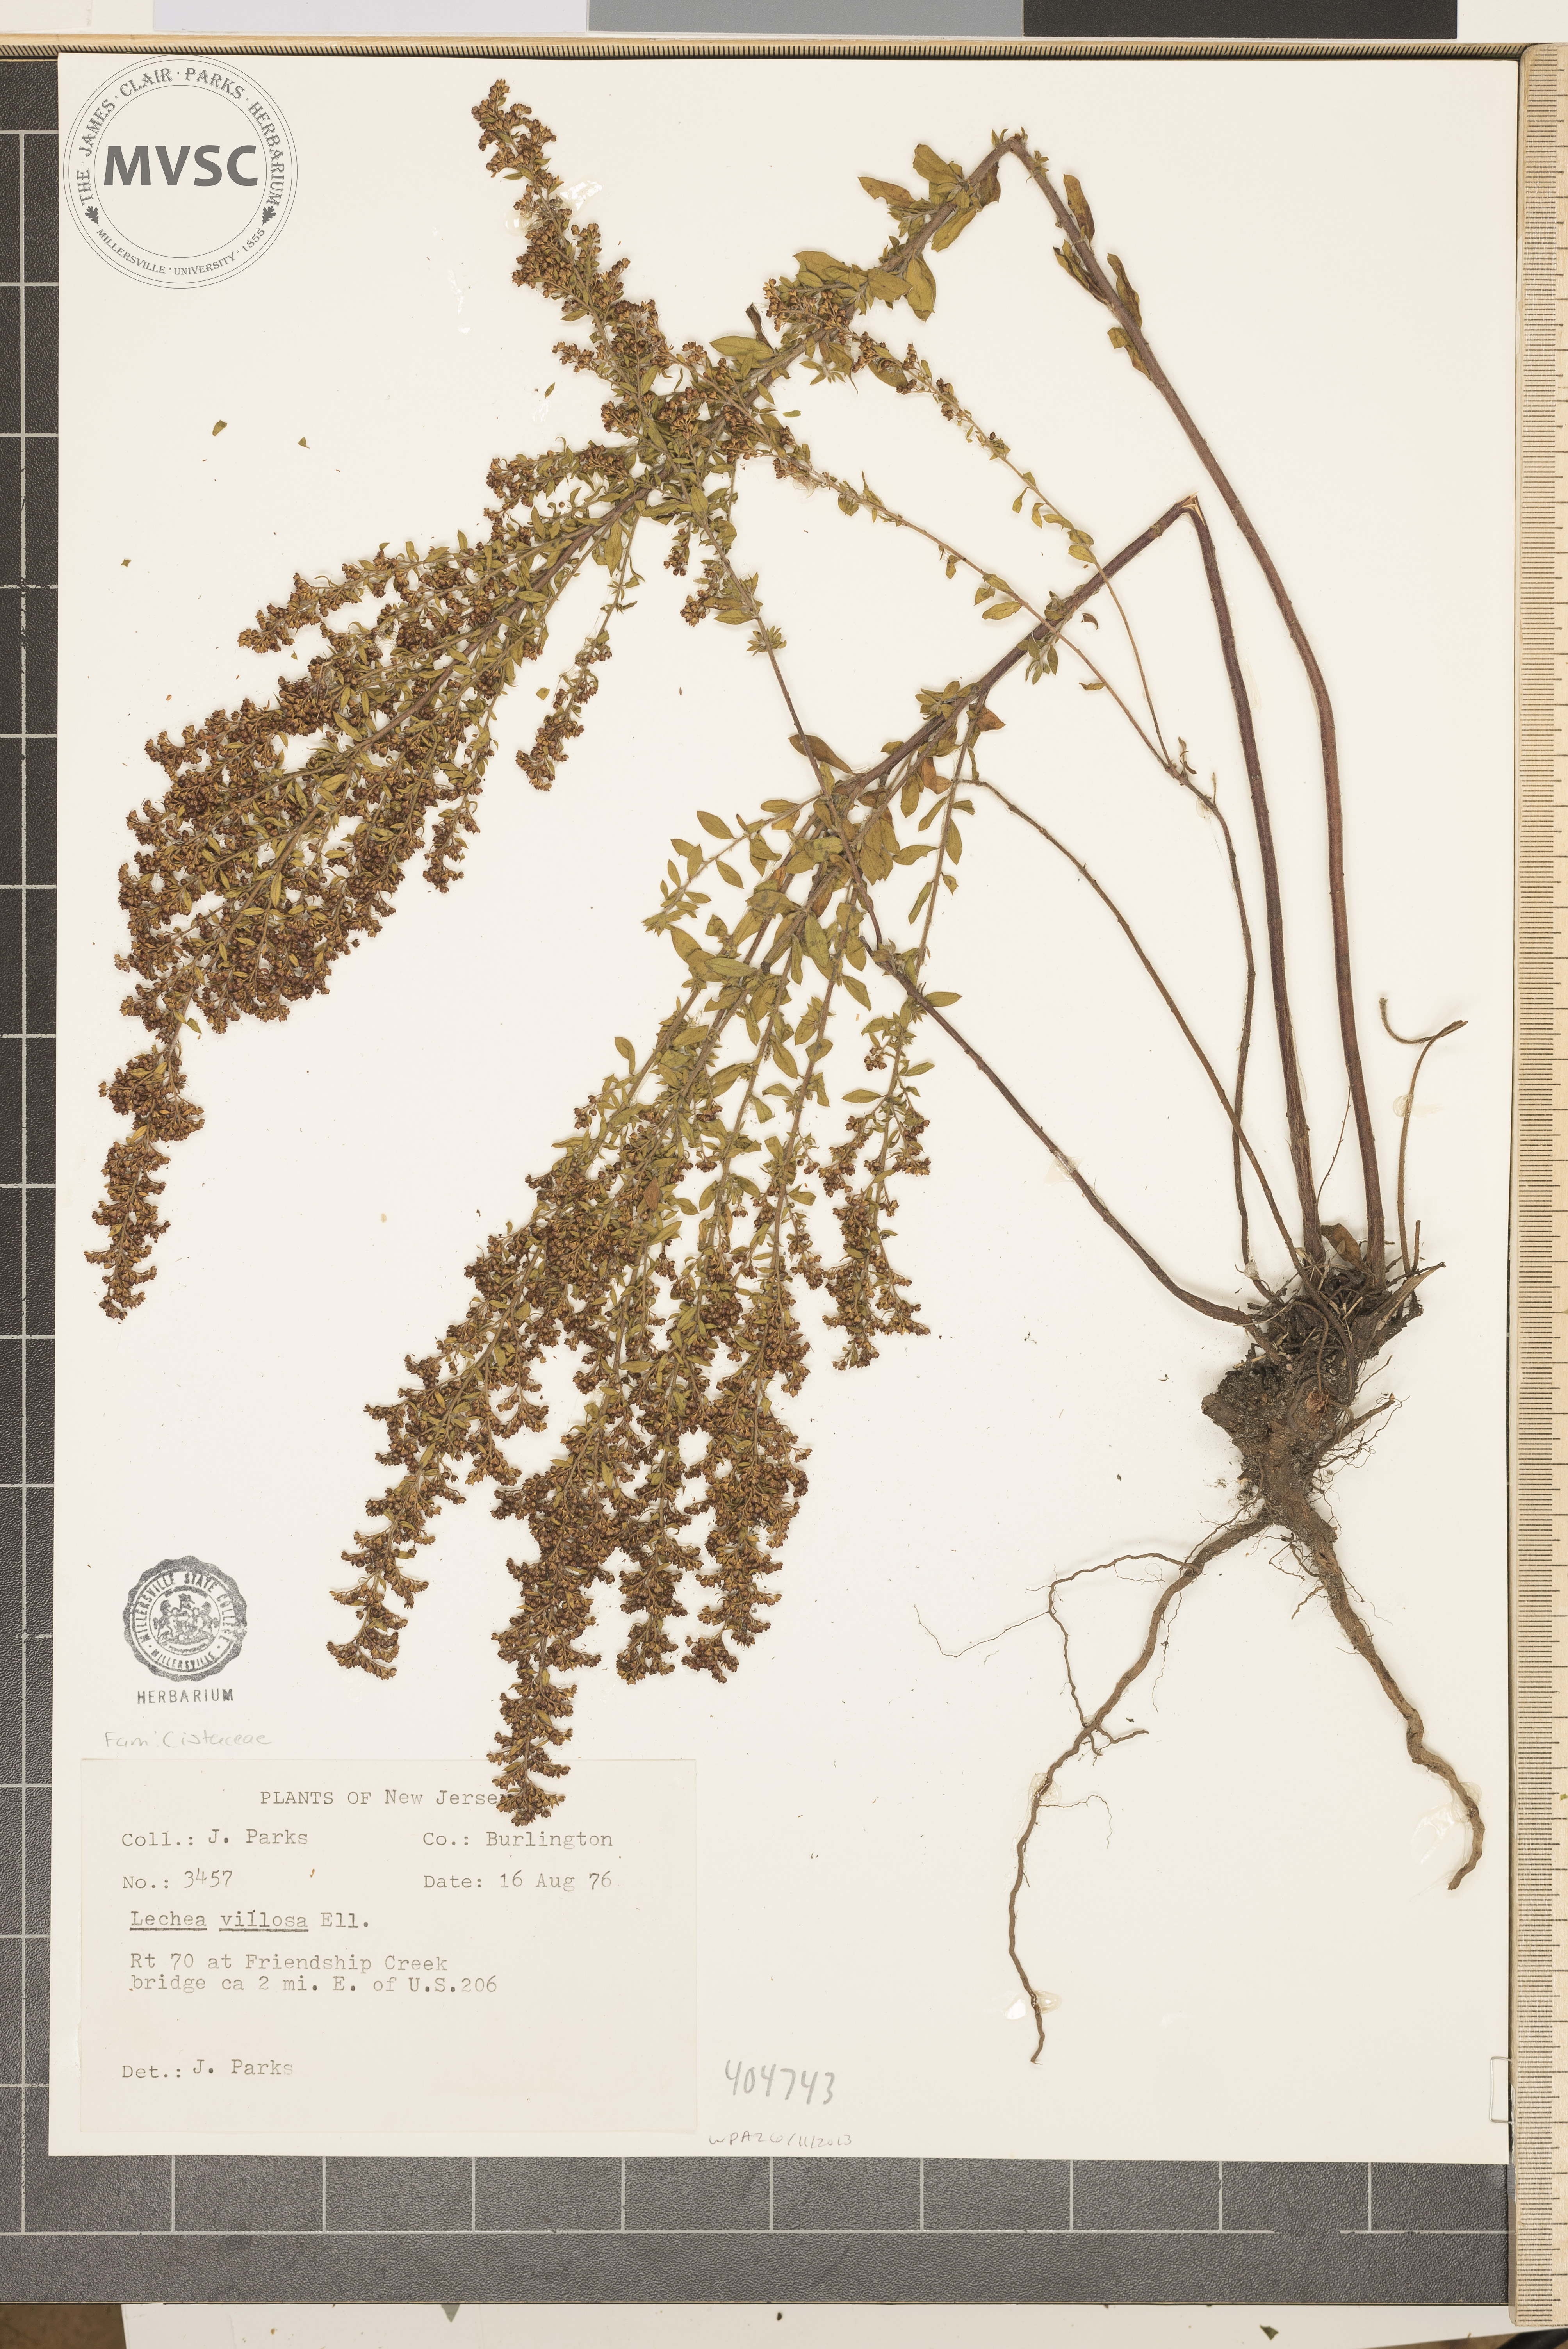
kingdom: Plantae
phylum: Tracheophyta
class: Magnoliopsida
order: Malvales
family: Cistaceae
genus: Lechea
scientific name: Lechea mucronata
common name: Hairy pinweed
